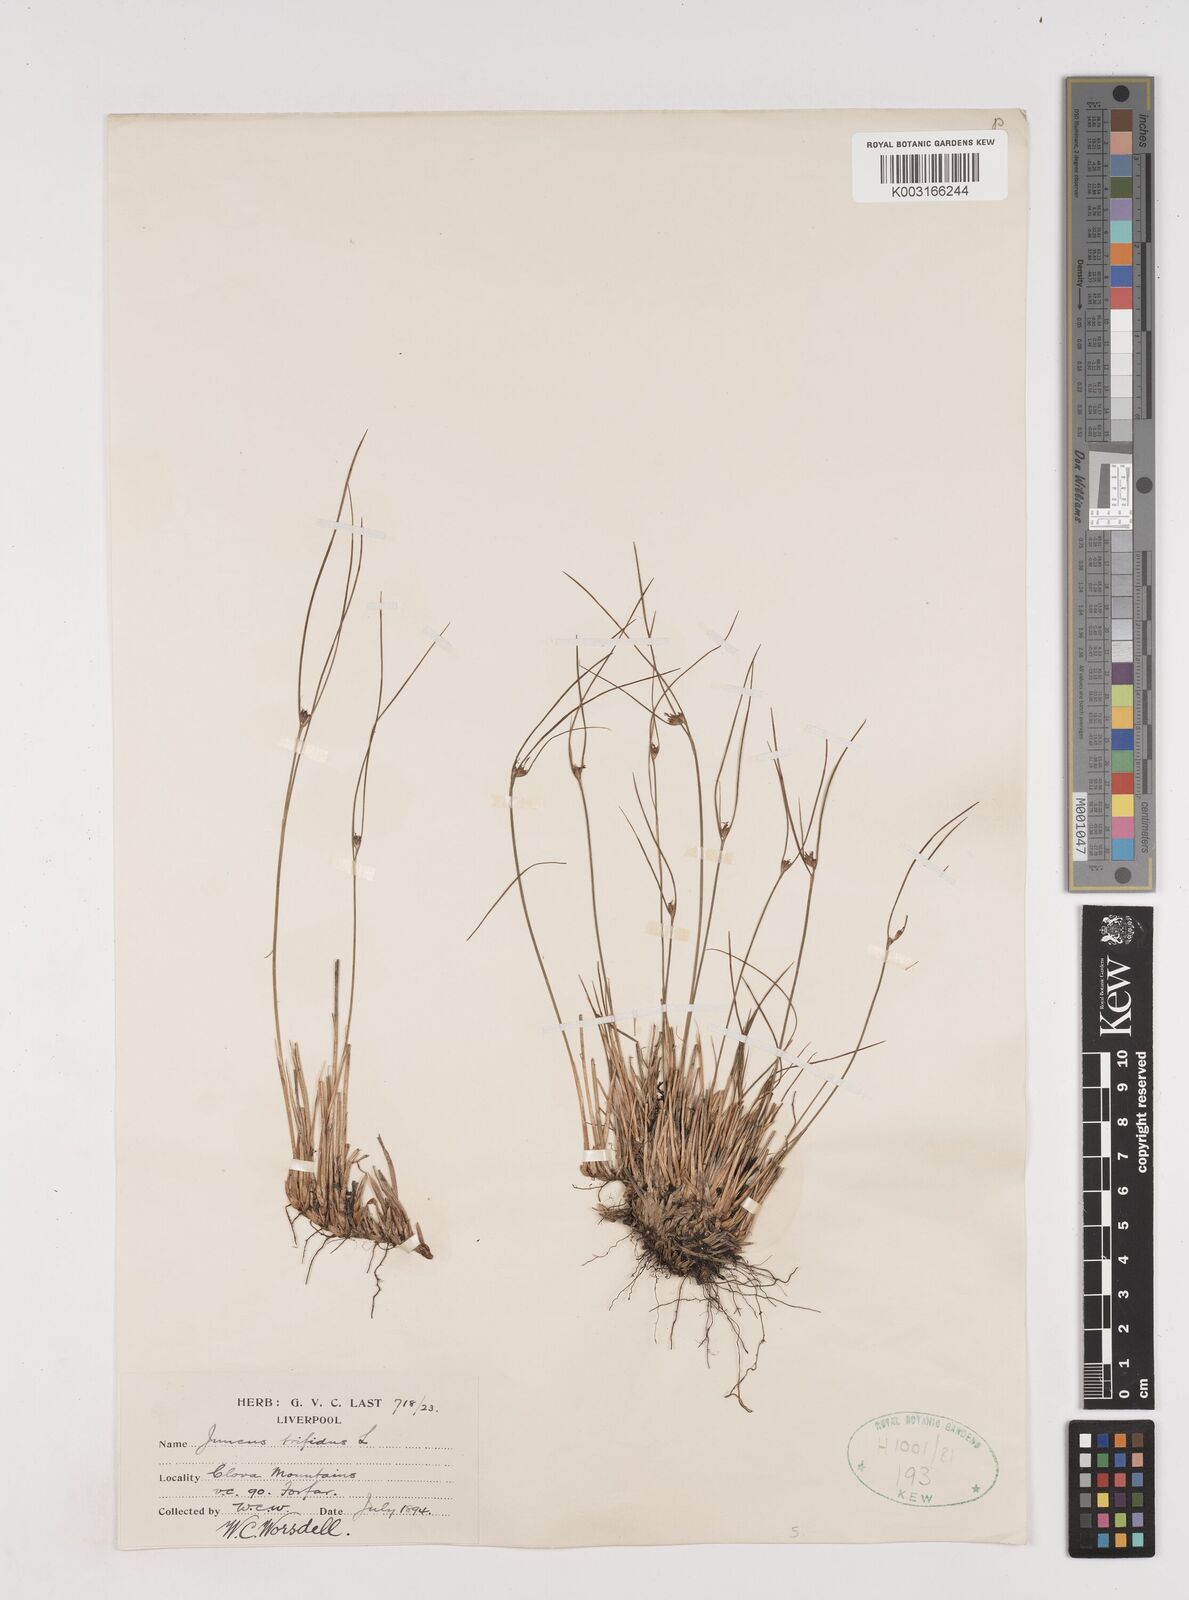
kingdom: Plantae
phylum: Tracheophyta
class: Liliopsida
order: Poales
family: Juncaceae
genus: Oreojuncus
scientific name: Oreojuncus trifidus
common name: Highland rush
